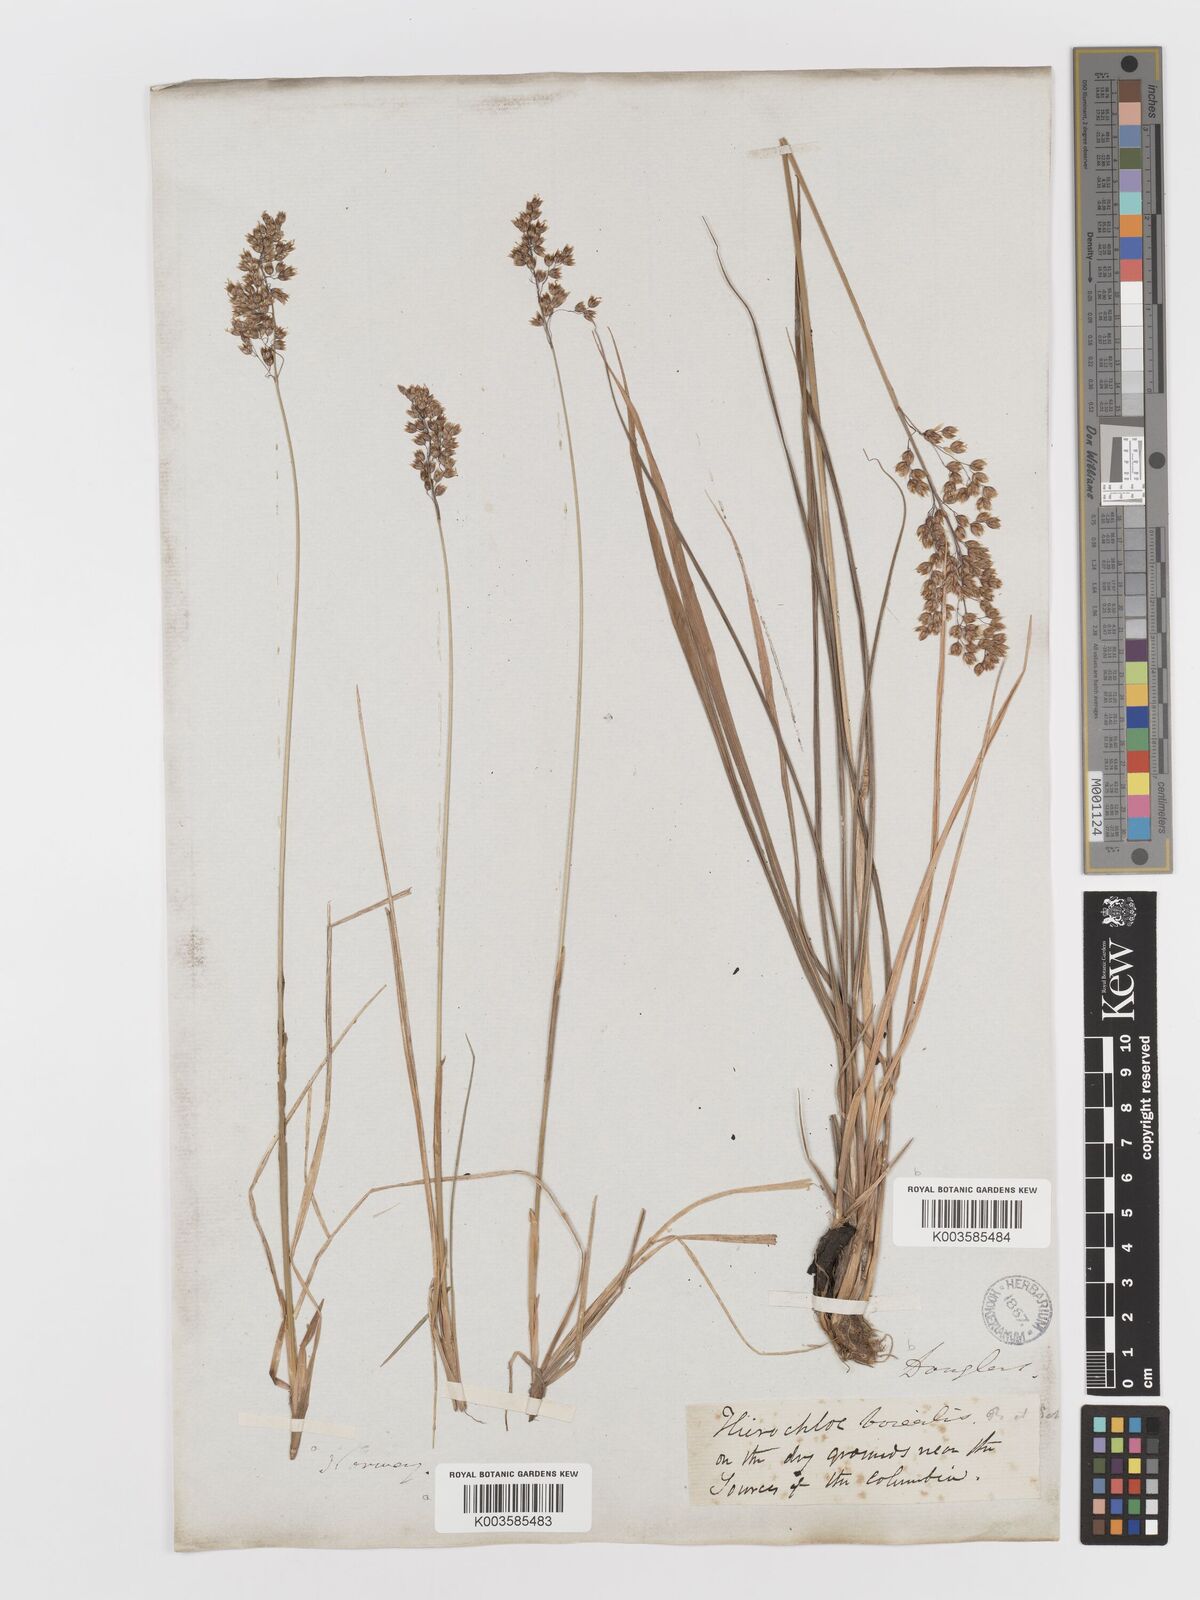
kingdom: Plantae
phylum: Tracheophyta
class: Liliopsida
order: Poales
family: Poaceae
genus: Anthoxanthum
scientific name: Anthoxanthum nitens
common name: Holy grass
